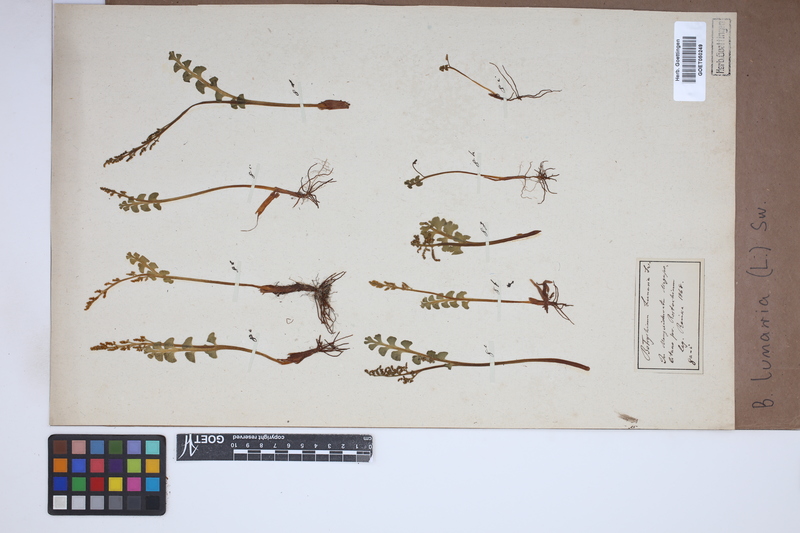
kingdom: Plantae
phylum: Tracheophyta
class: Polypodiopsida
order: Ophioglossales
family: Ophioglossaceae
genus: Botrychium
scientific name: Botrychium lunaria
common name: Moonwort
